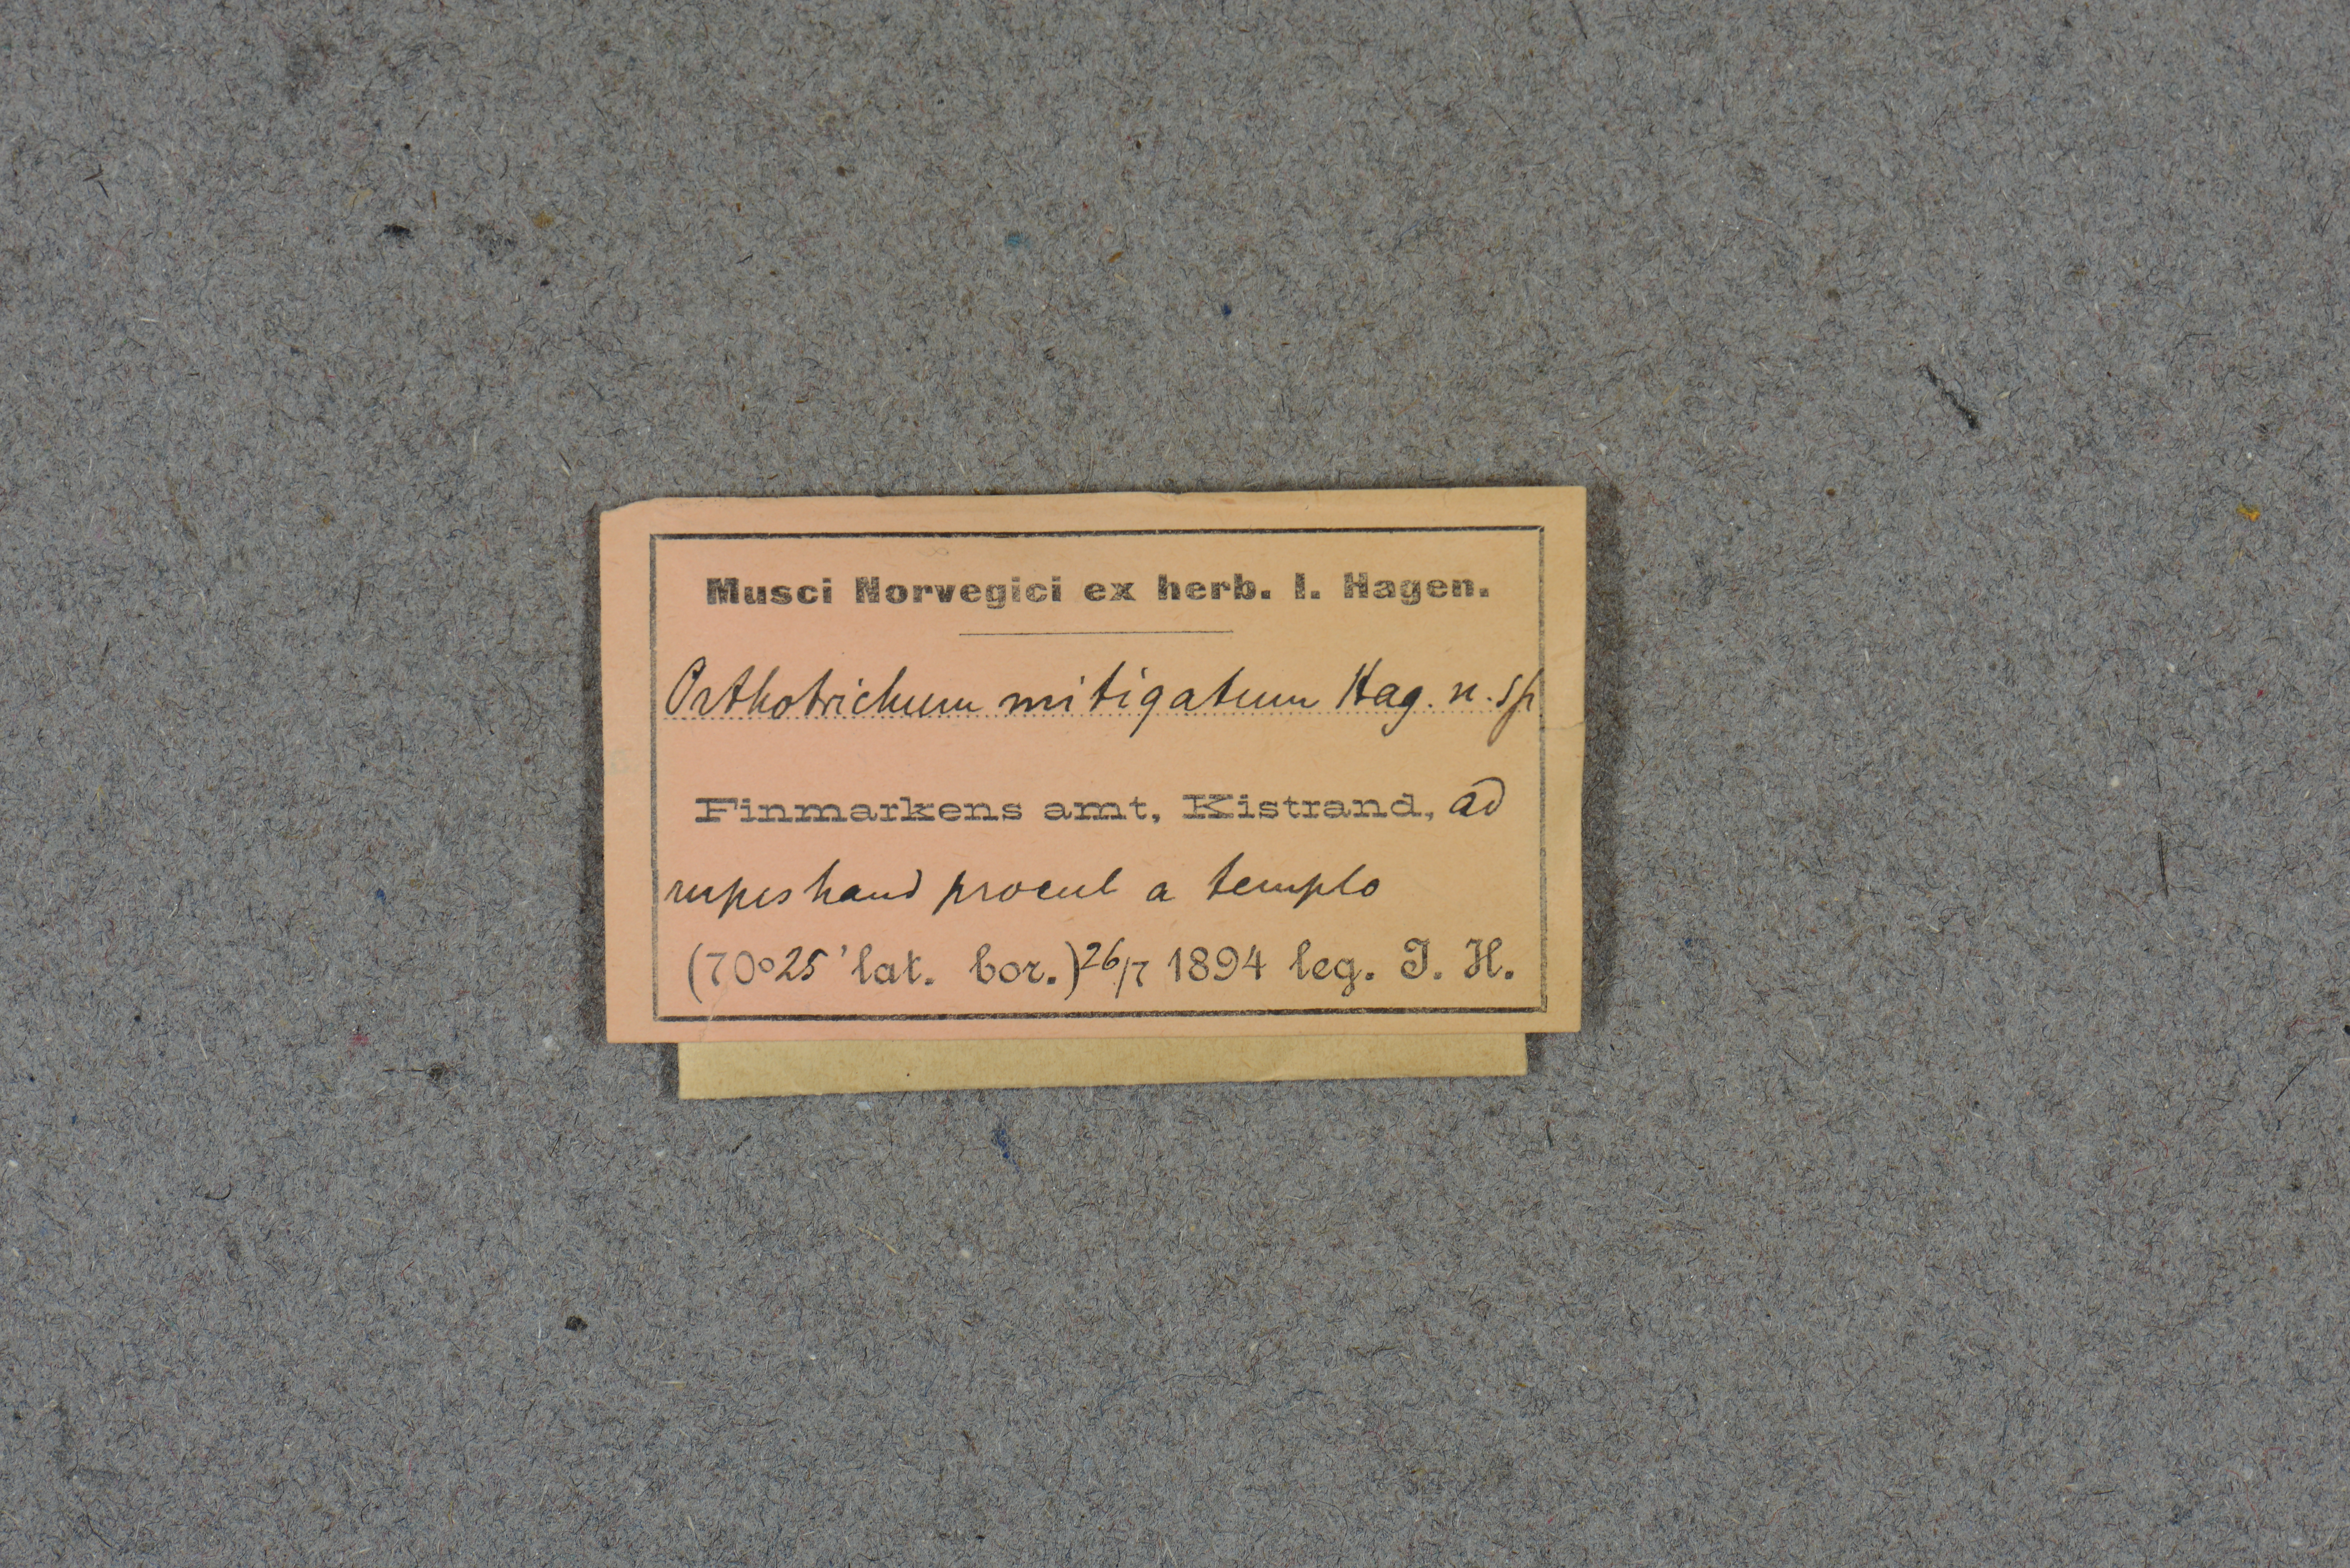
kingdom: Plantae
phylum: Bryophyta
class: Bryopsida
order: Orthotrichales
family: Orthotrichaceae
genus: Lewinskya
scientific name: Lewinskya pylaisii
